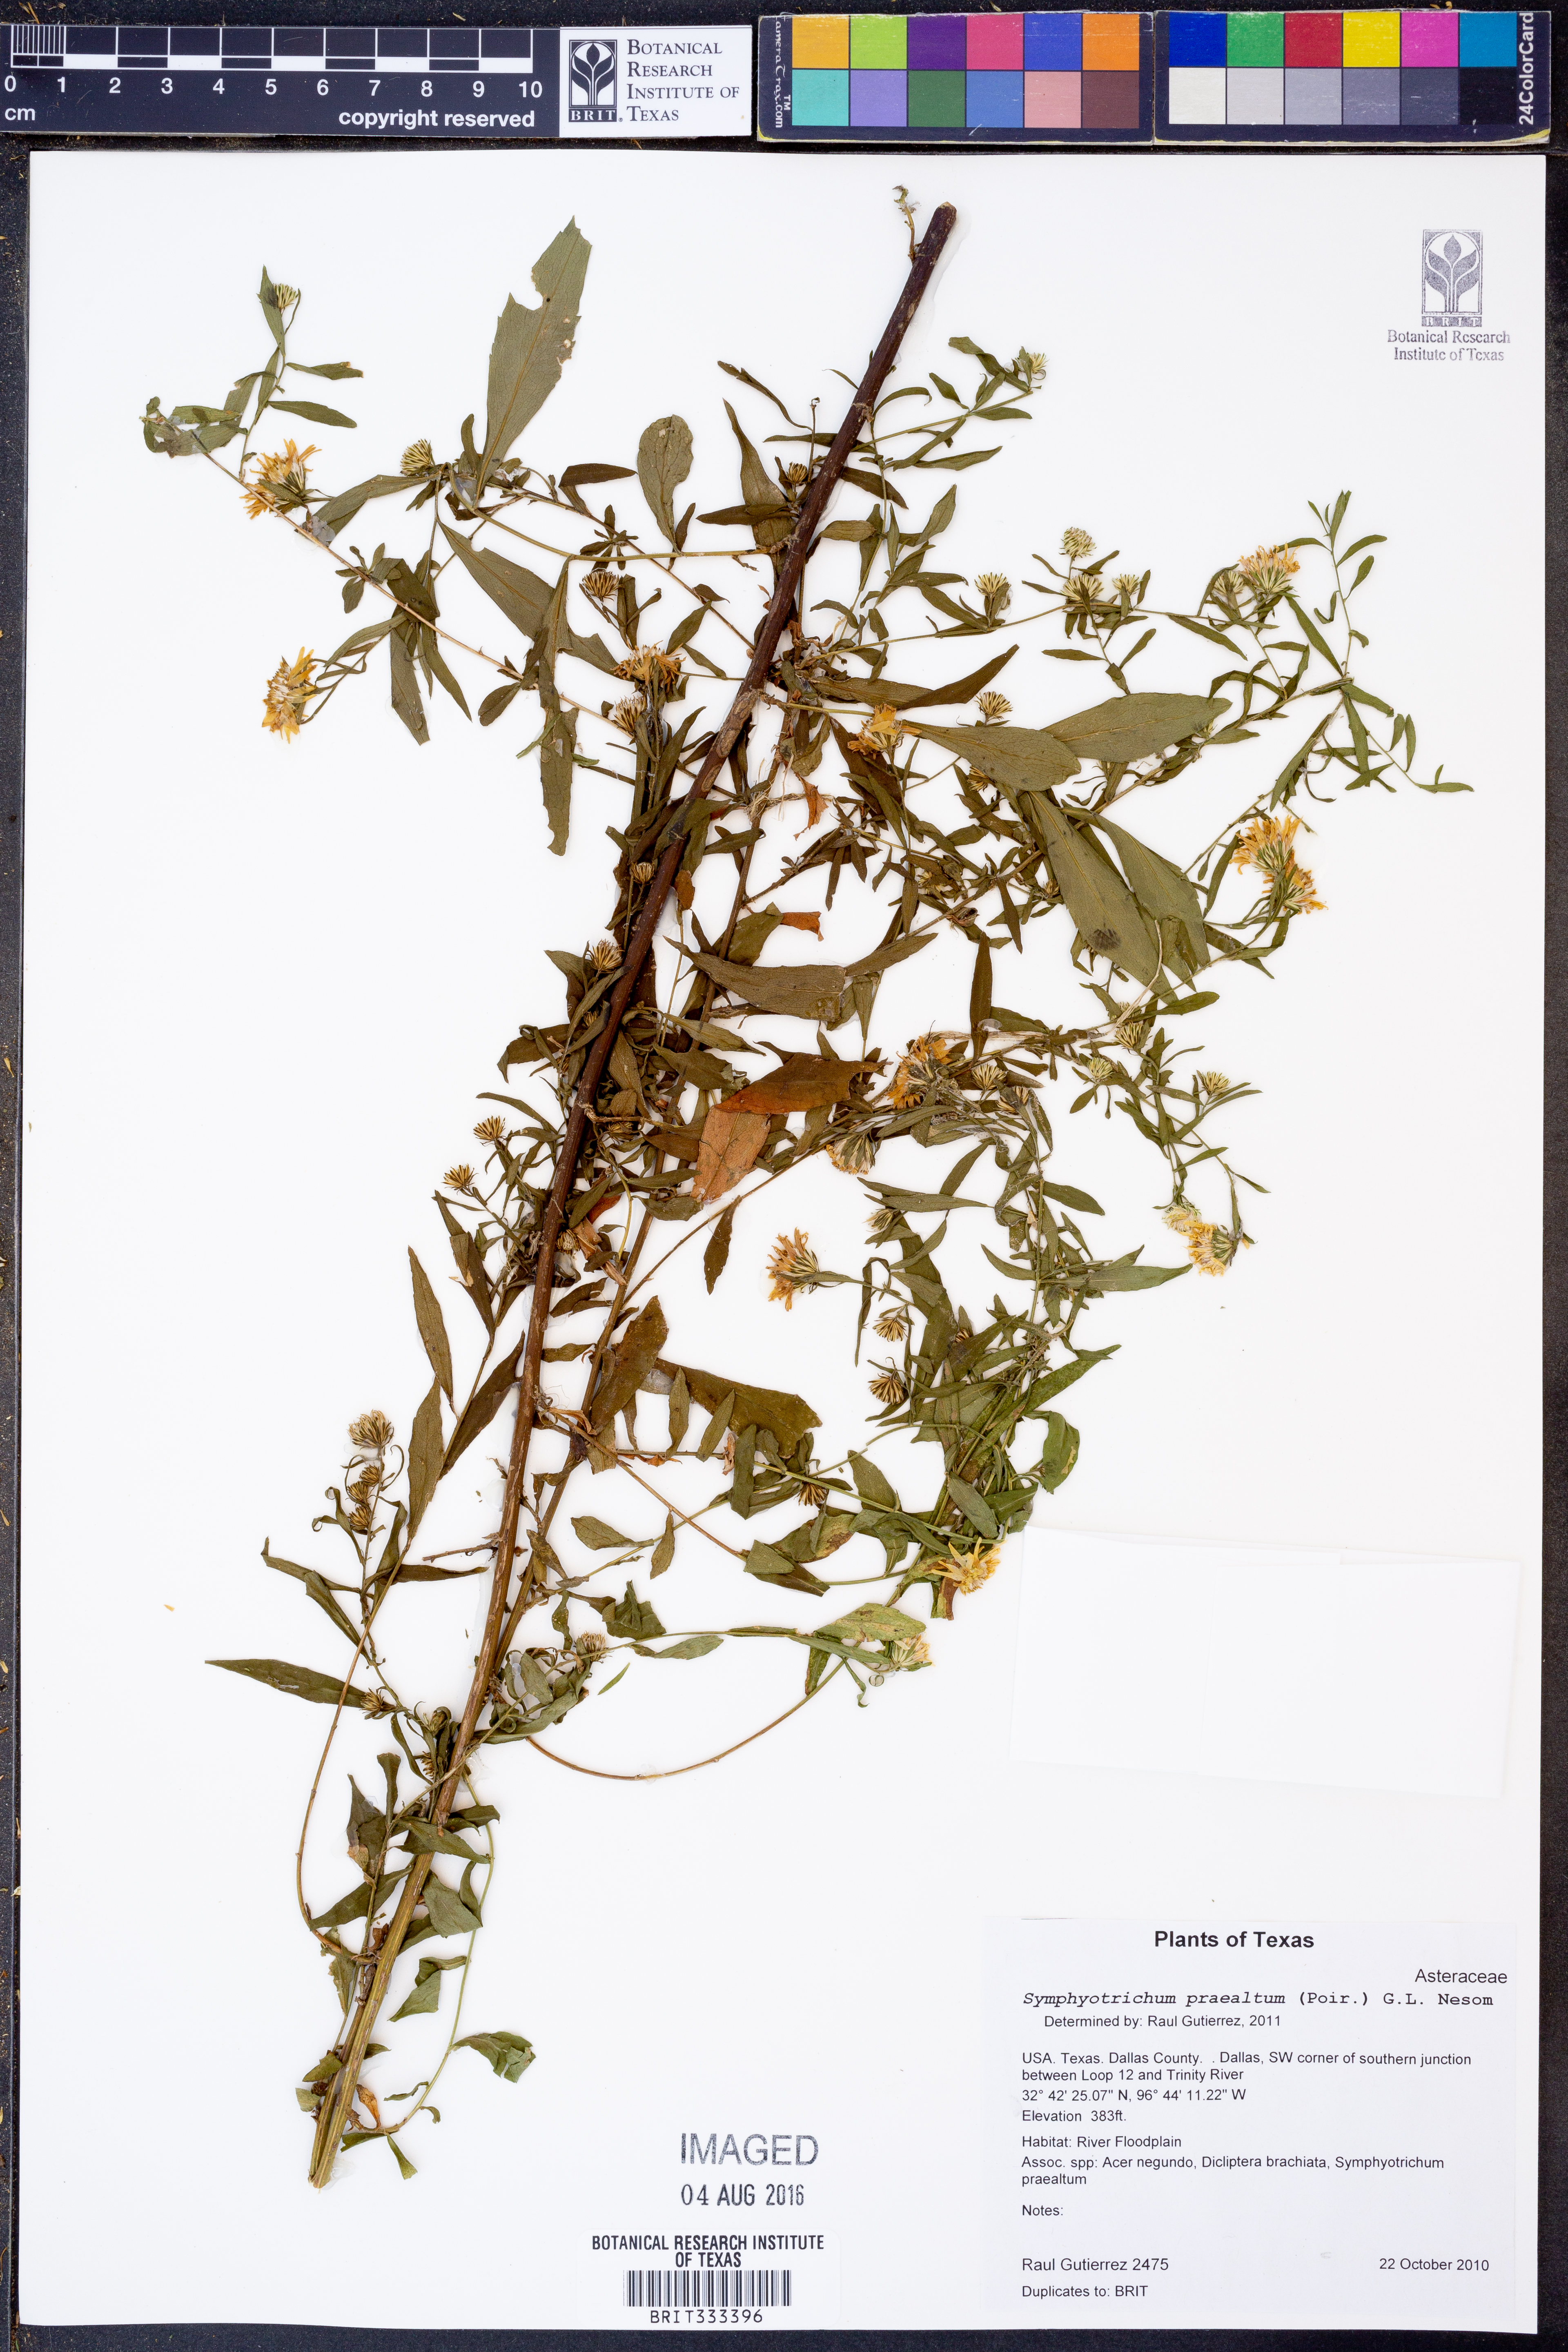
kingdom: Plantae
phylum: Tracheophyta
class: Magnoliopsida
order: Asterales
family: Asteraceae
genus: Symphyotrichum
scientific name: Symphyotrichum praealtum
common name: Willow aster
